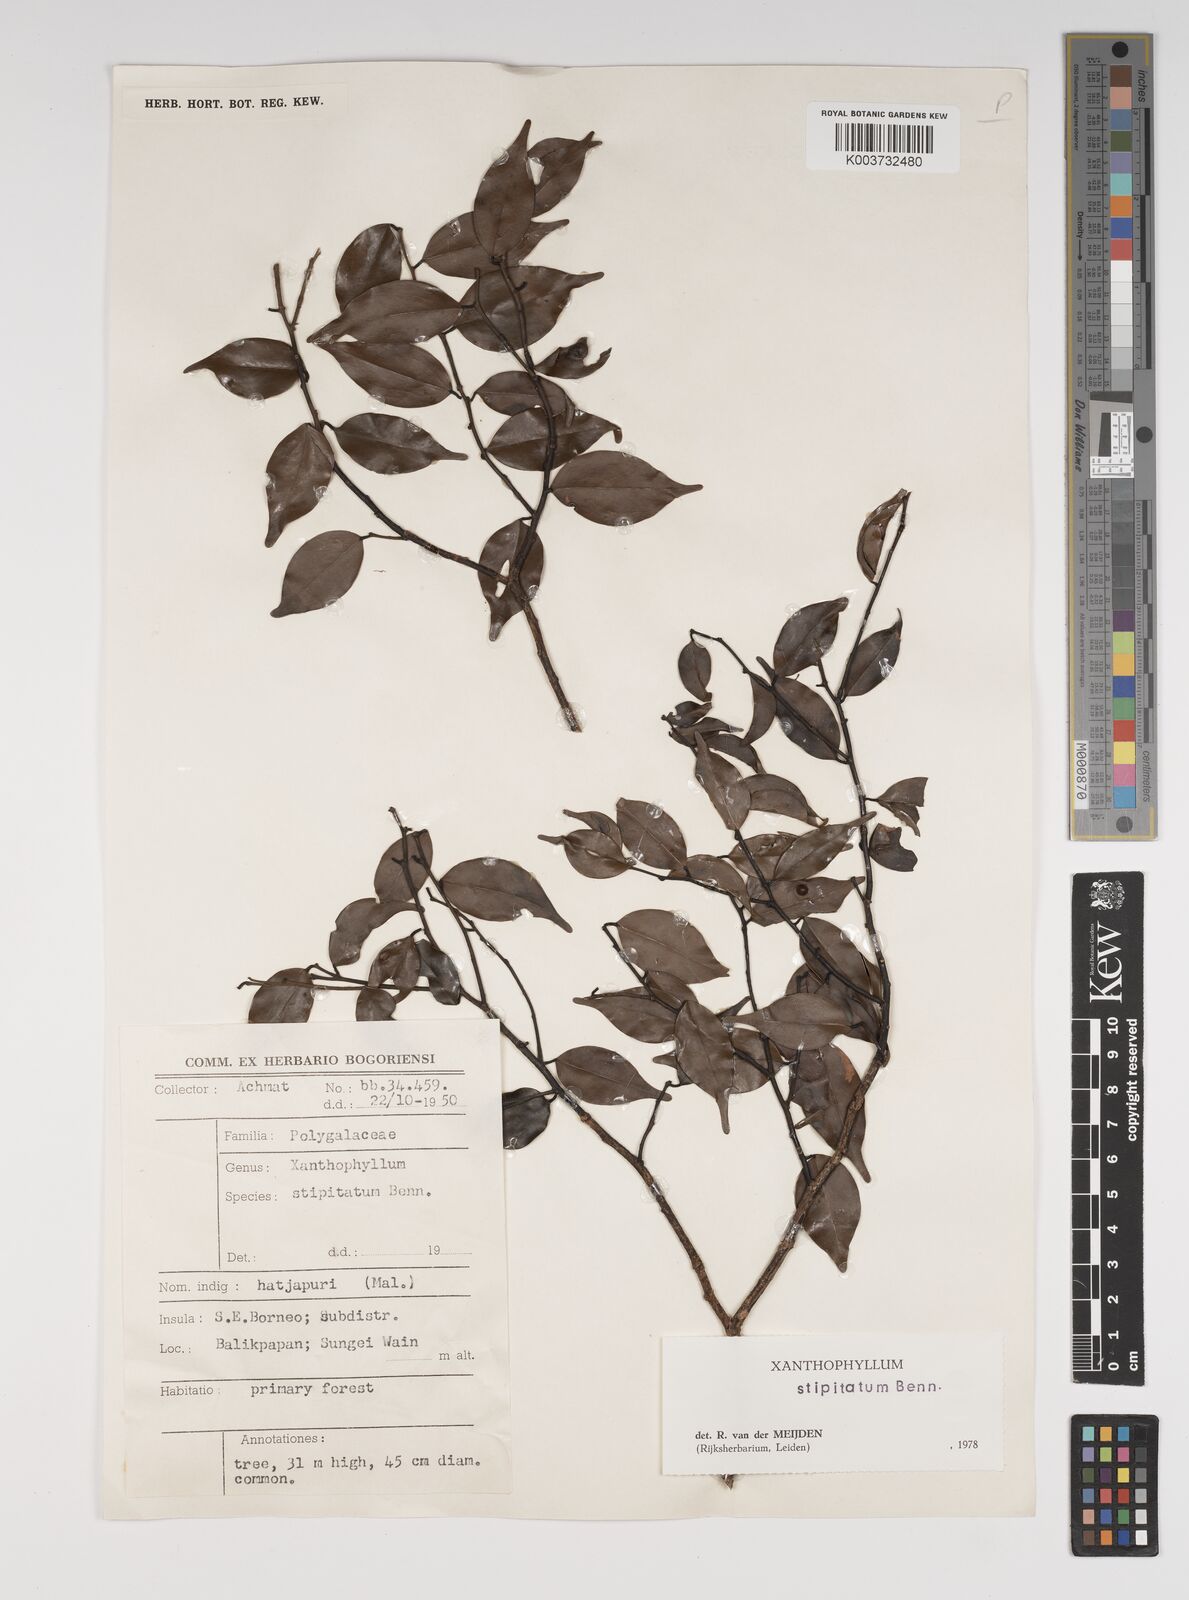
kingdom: Plantae
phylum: Tracheophyta
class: Magnoliopsida
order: Fabales
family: Polygalaceae
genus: Xanthophyllum
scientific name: Xanthophyllum stipitatum
